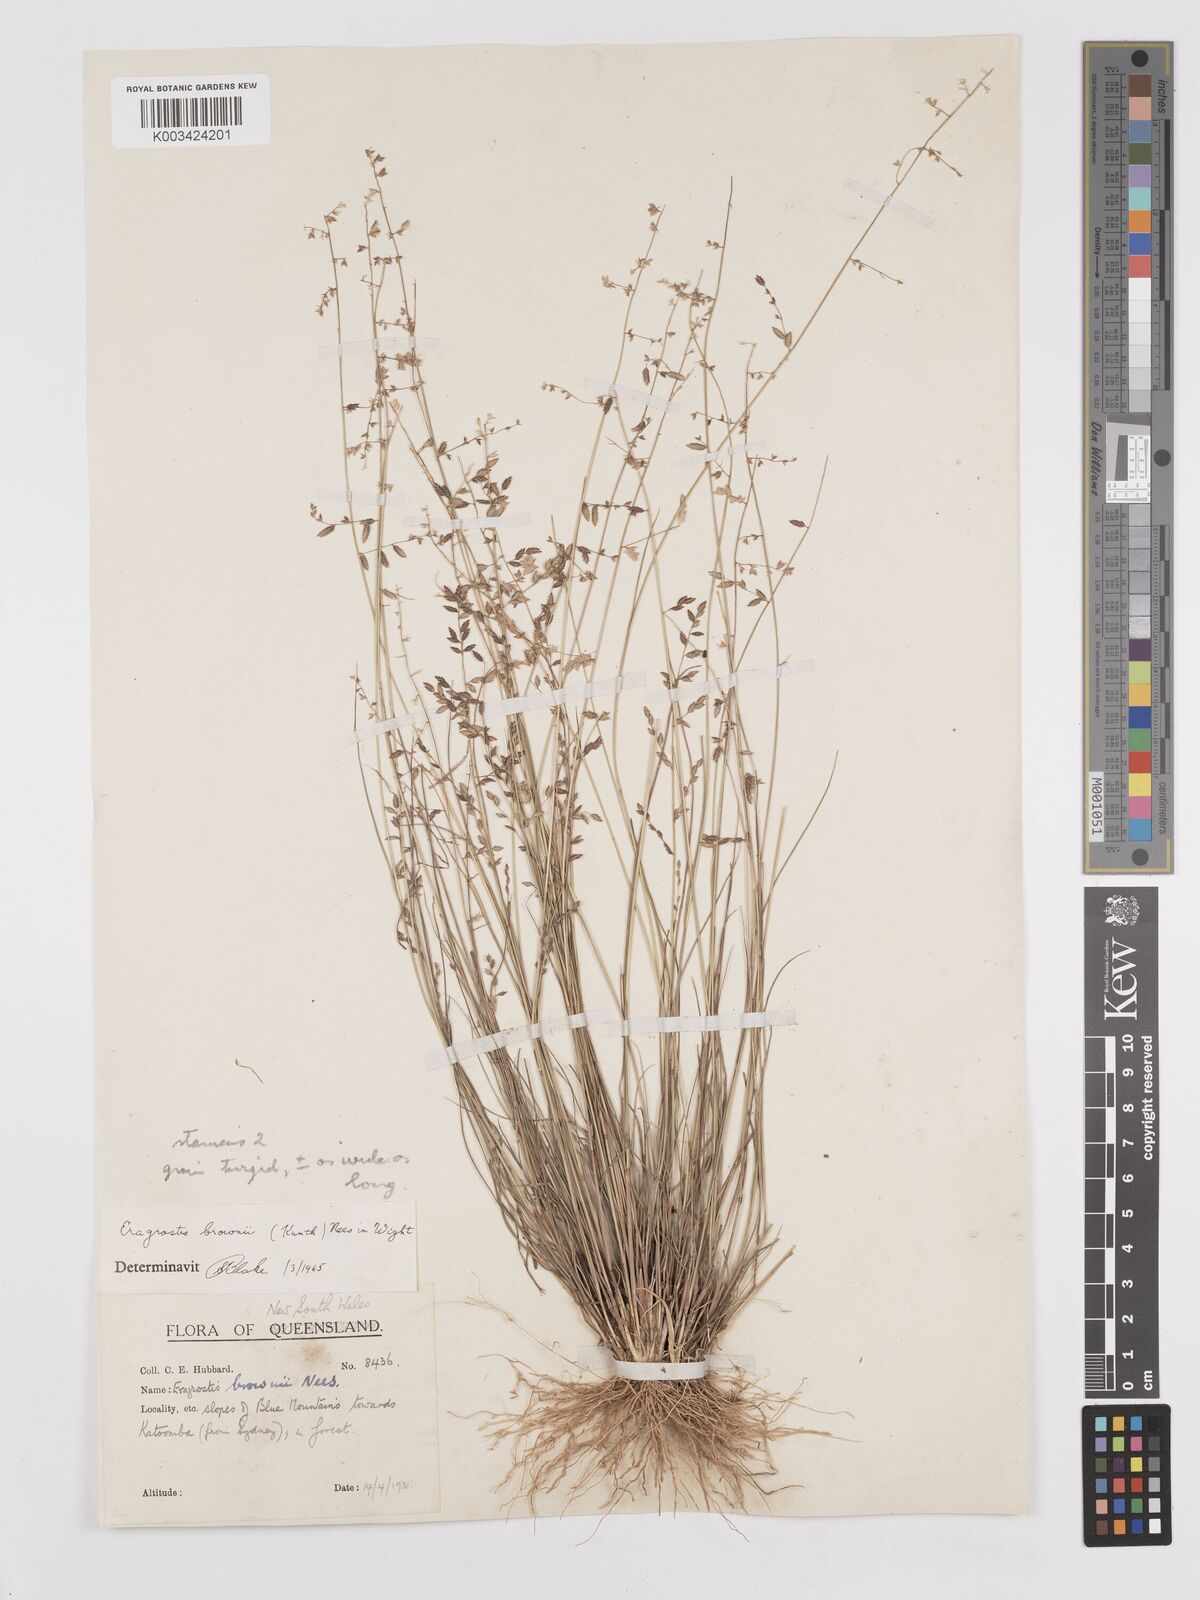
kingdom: Plantae
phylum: Tracheophyta
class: Liliopsida
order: Poales
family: Poaceae
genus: Eragrostis
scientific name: Eragrostis brownii
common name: Lovegrass
